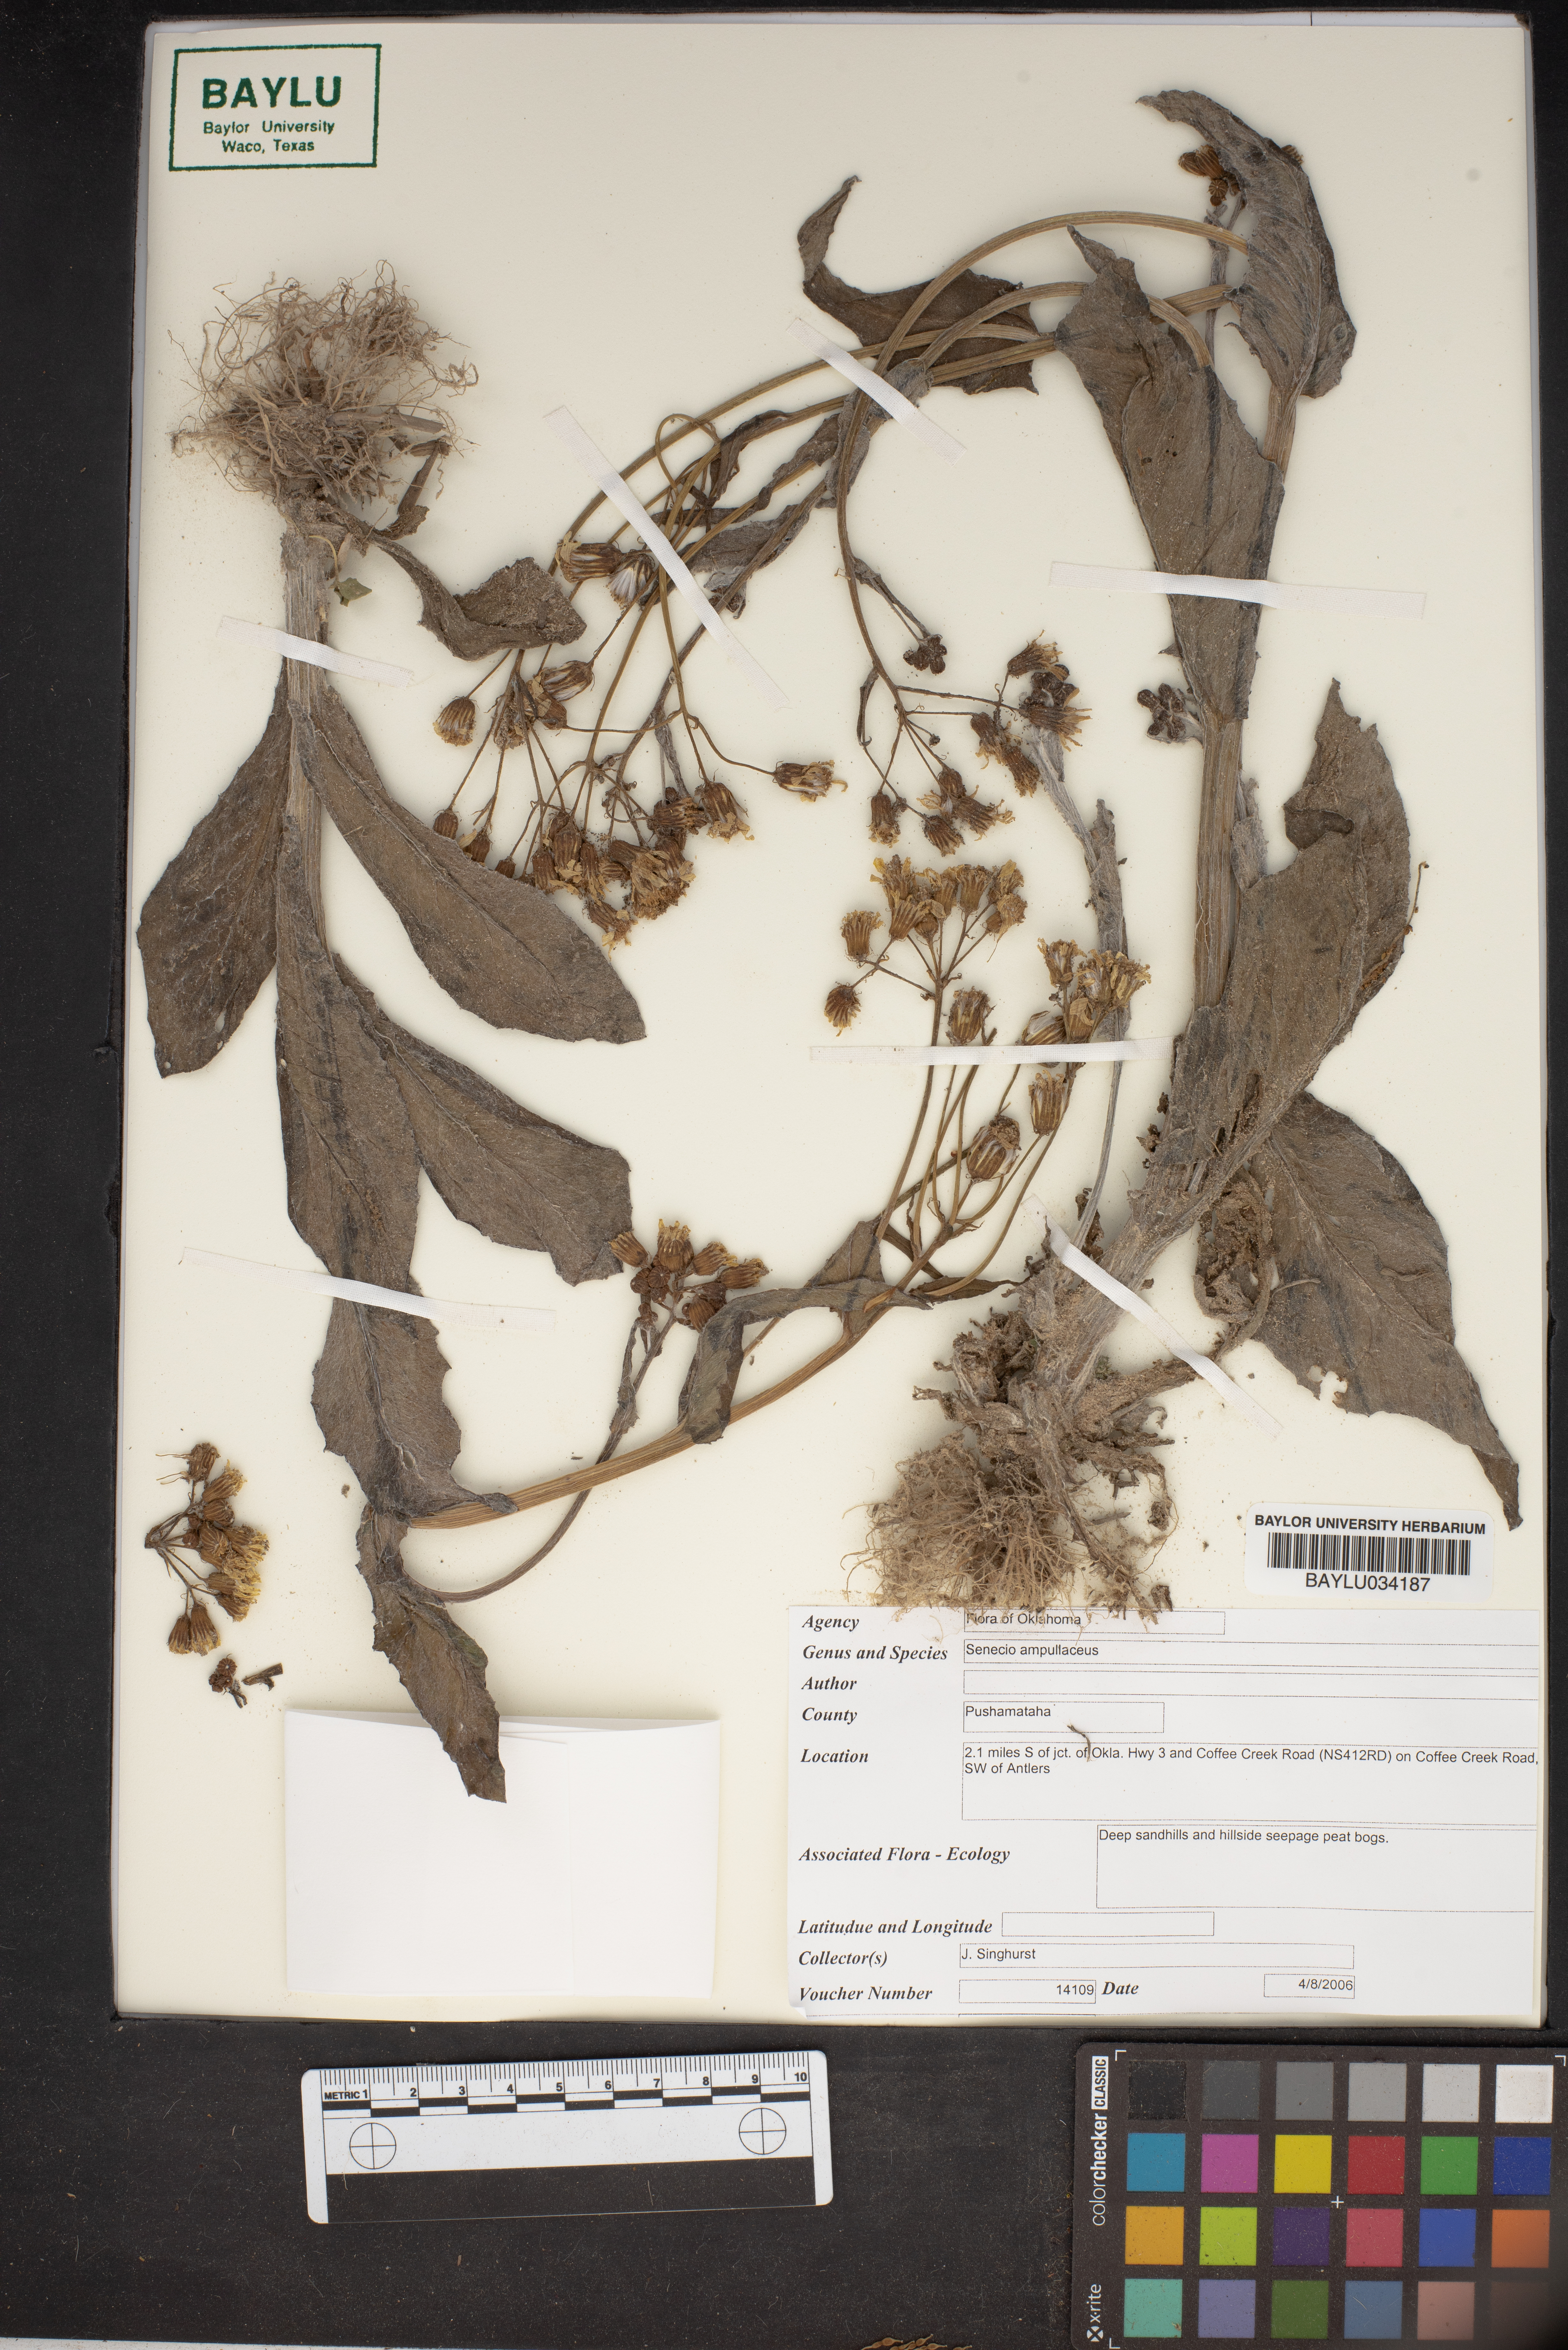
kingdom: Plantae
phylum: Tracheophyta
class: Magnoliopsida
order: Asterales
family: Asteraceae
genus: Senecio
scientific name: Senecio ampullaceus
